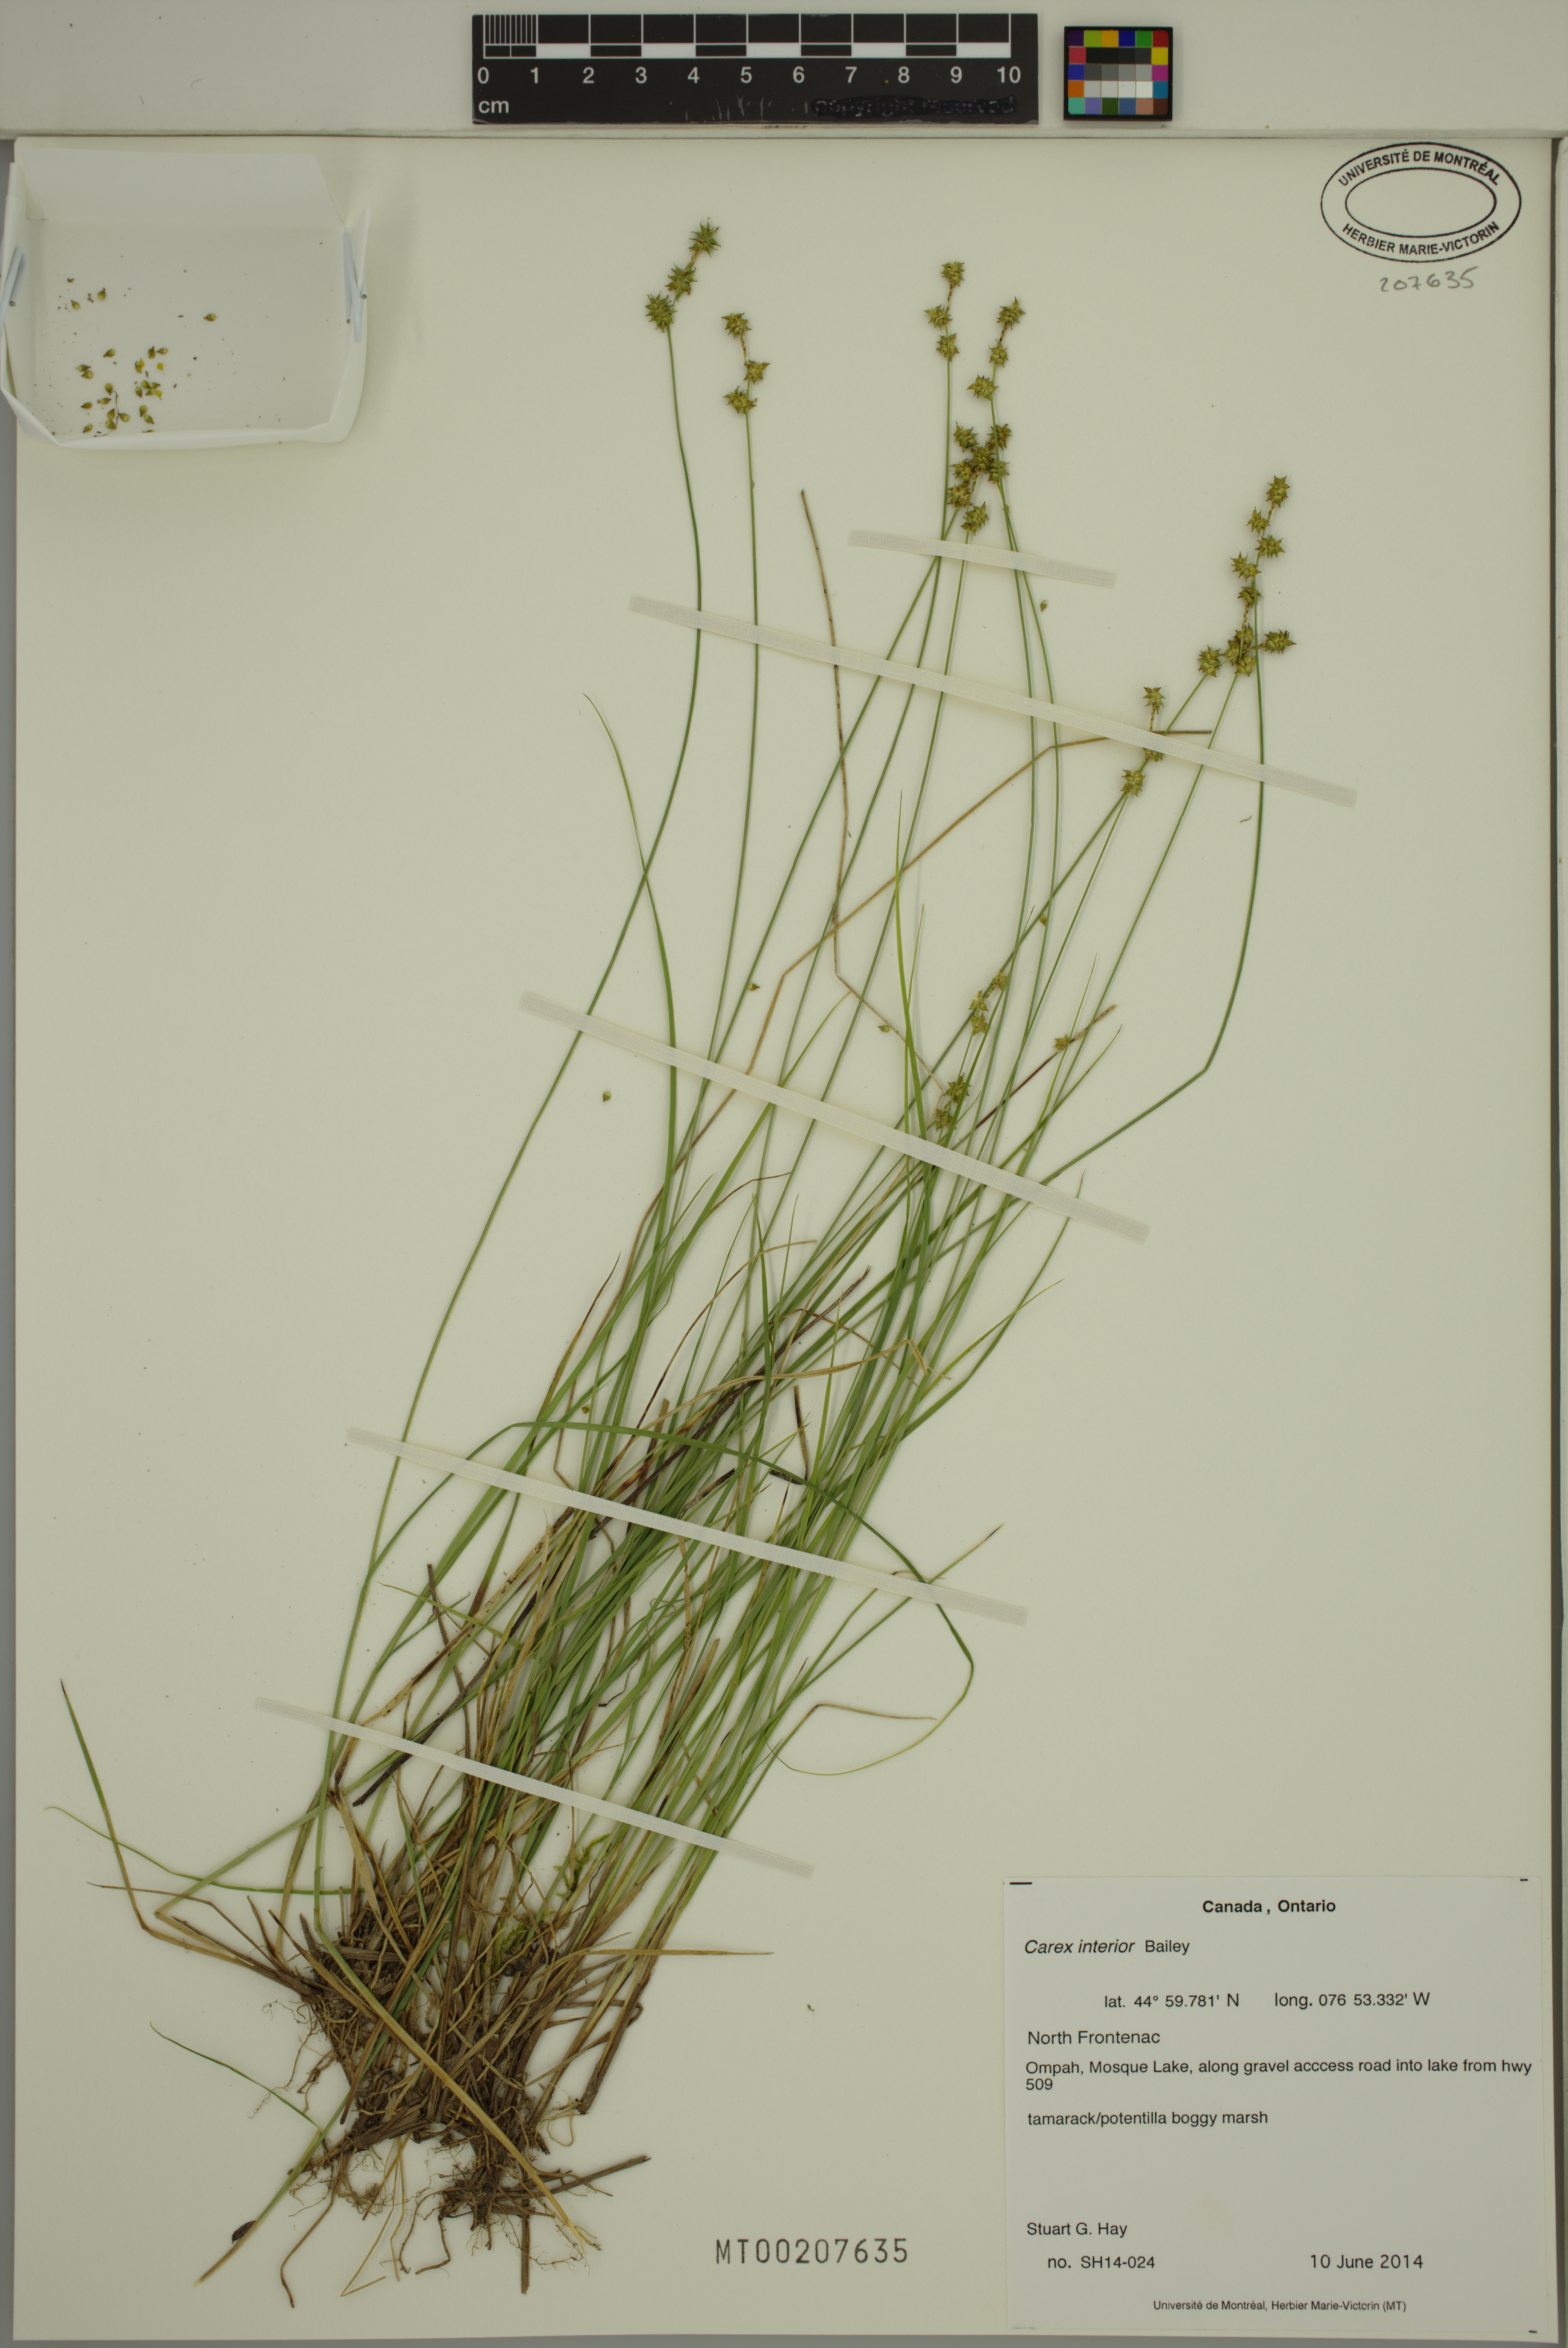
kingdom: Plantae
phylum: Tracheophyta
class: Liliopsida
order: Poales
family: Cyperaceae
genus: Carex
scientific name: Carex interior
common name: Inland sedge
